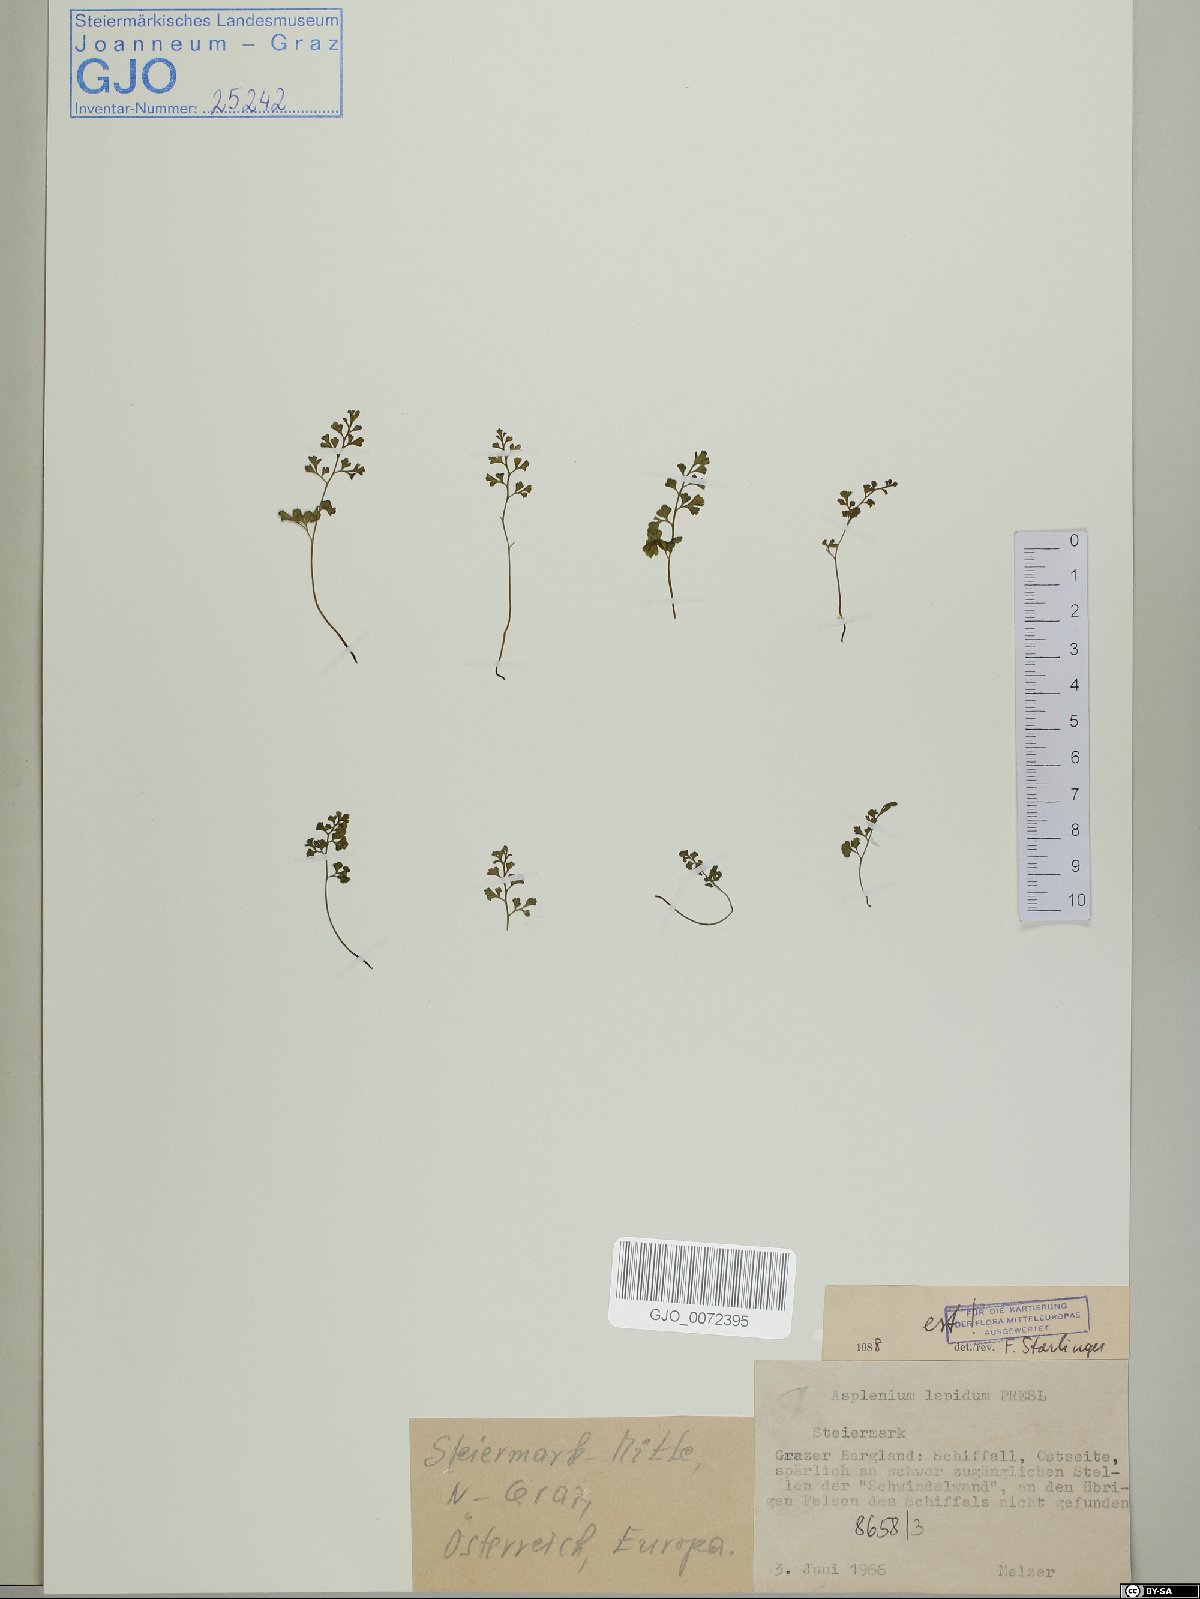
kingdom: Plantae
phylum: Tracheophyta
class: Polypodiopsida
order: Polypodiales
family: Aspleniaceae
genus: Asplenium
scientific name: Asplenium lepidum
